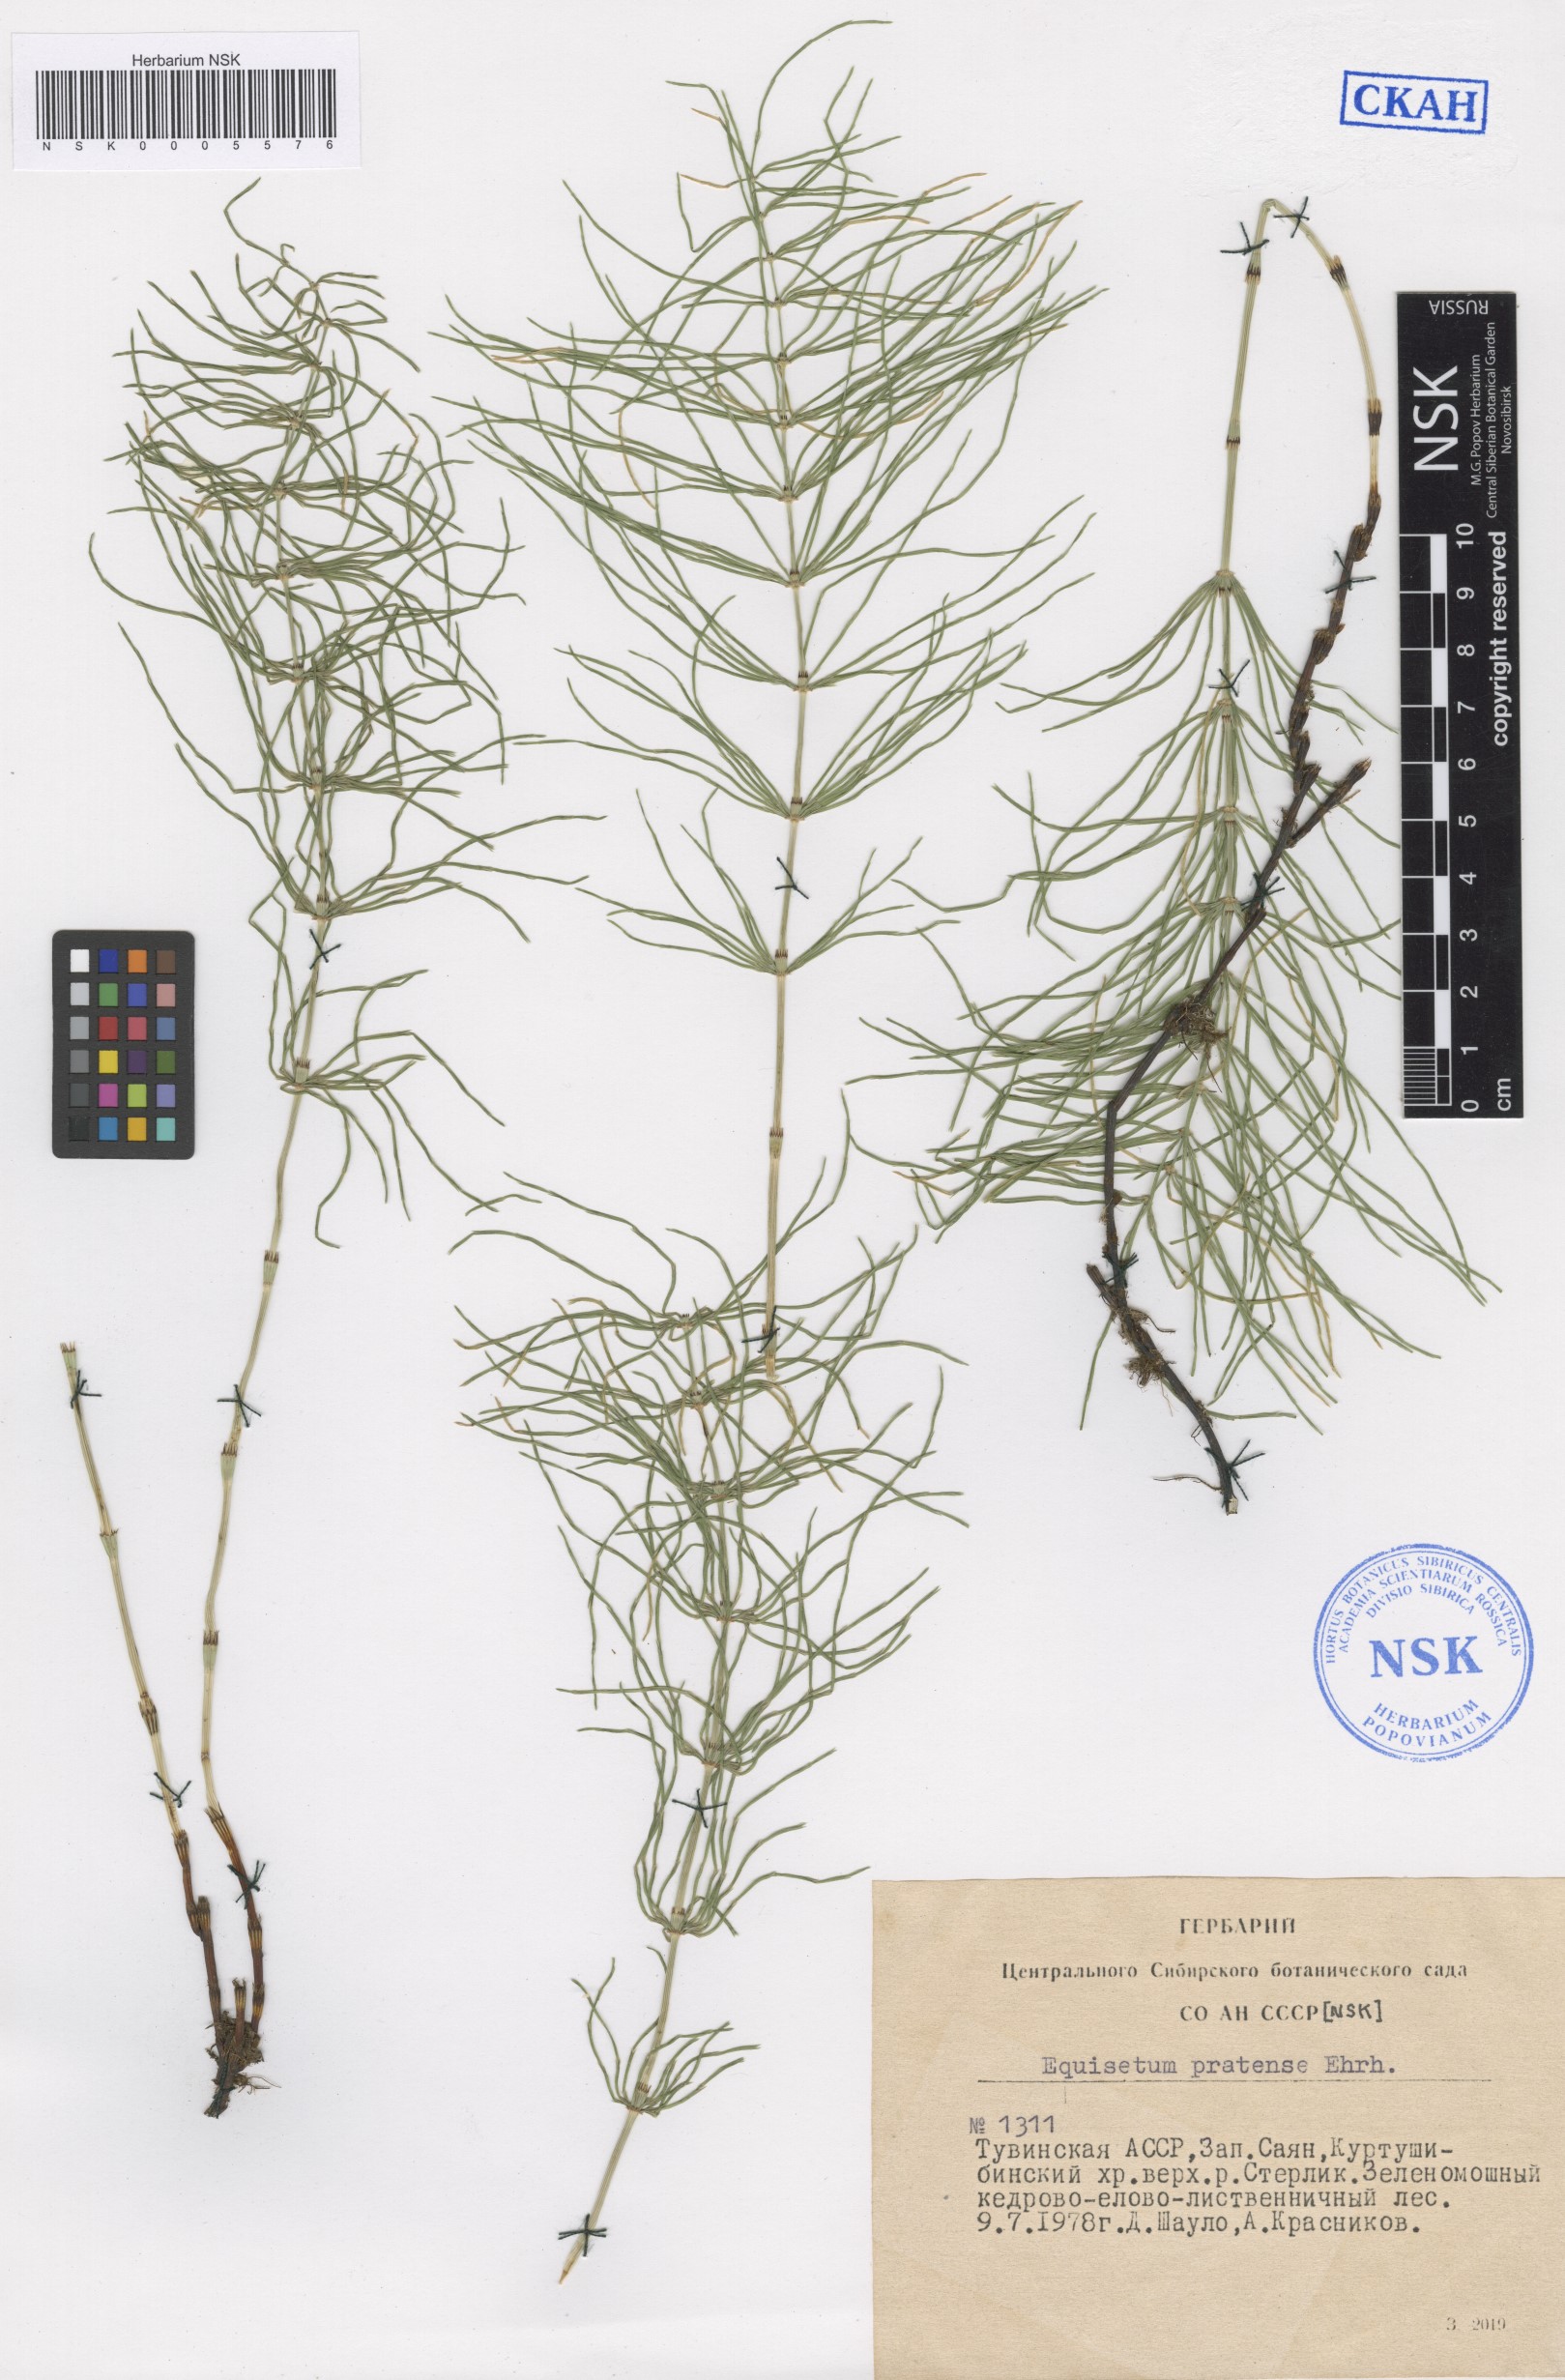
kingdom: Plantae
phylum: Tracheophyta
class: Polypodiopsida
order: Equisetales
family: Equisetaceae
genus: Equisetum
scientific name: Equisetum pratense
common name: Meadow horsetail
